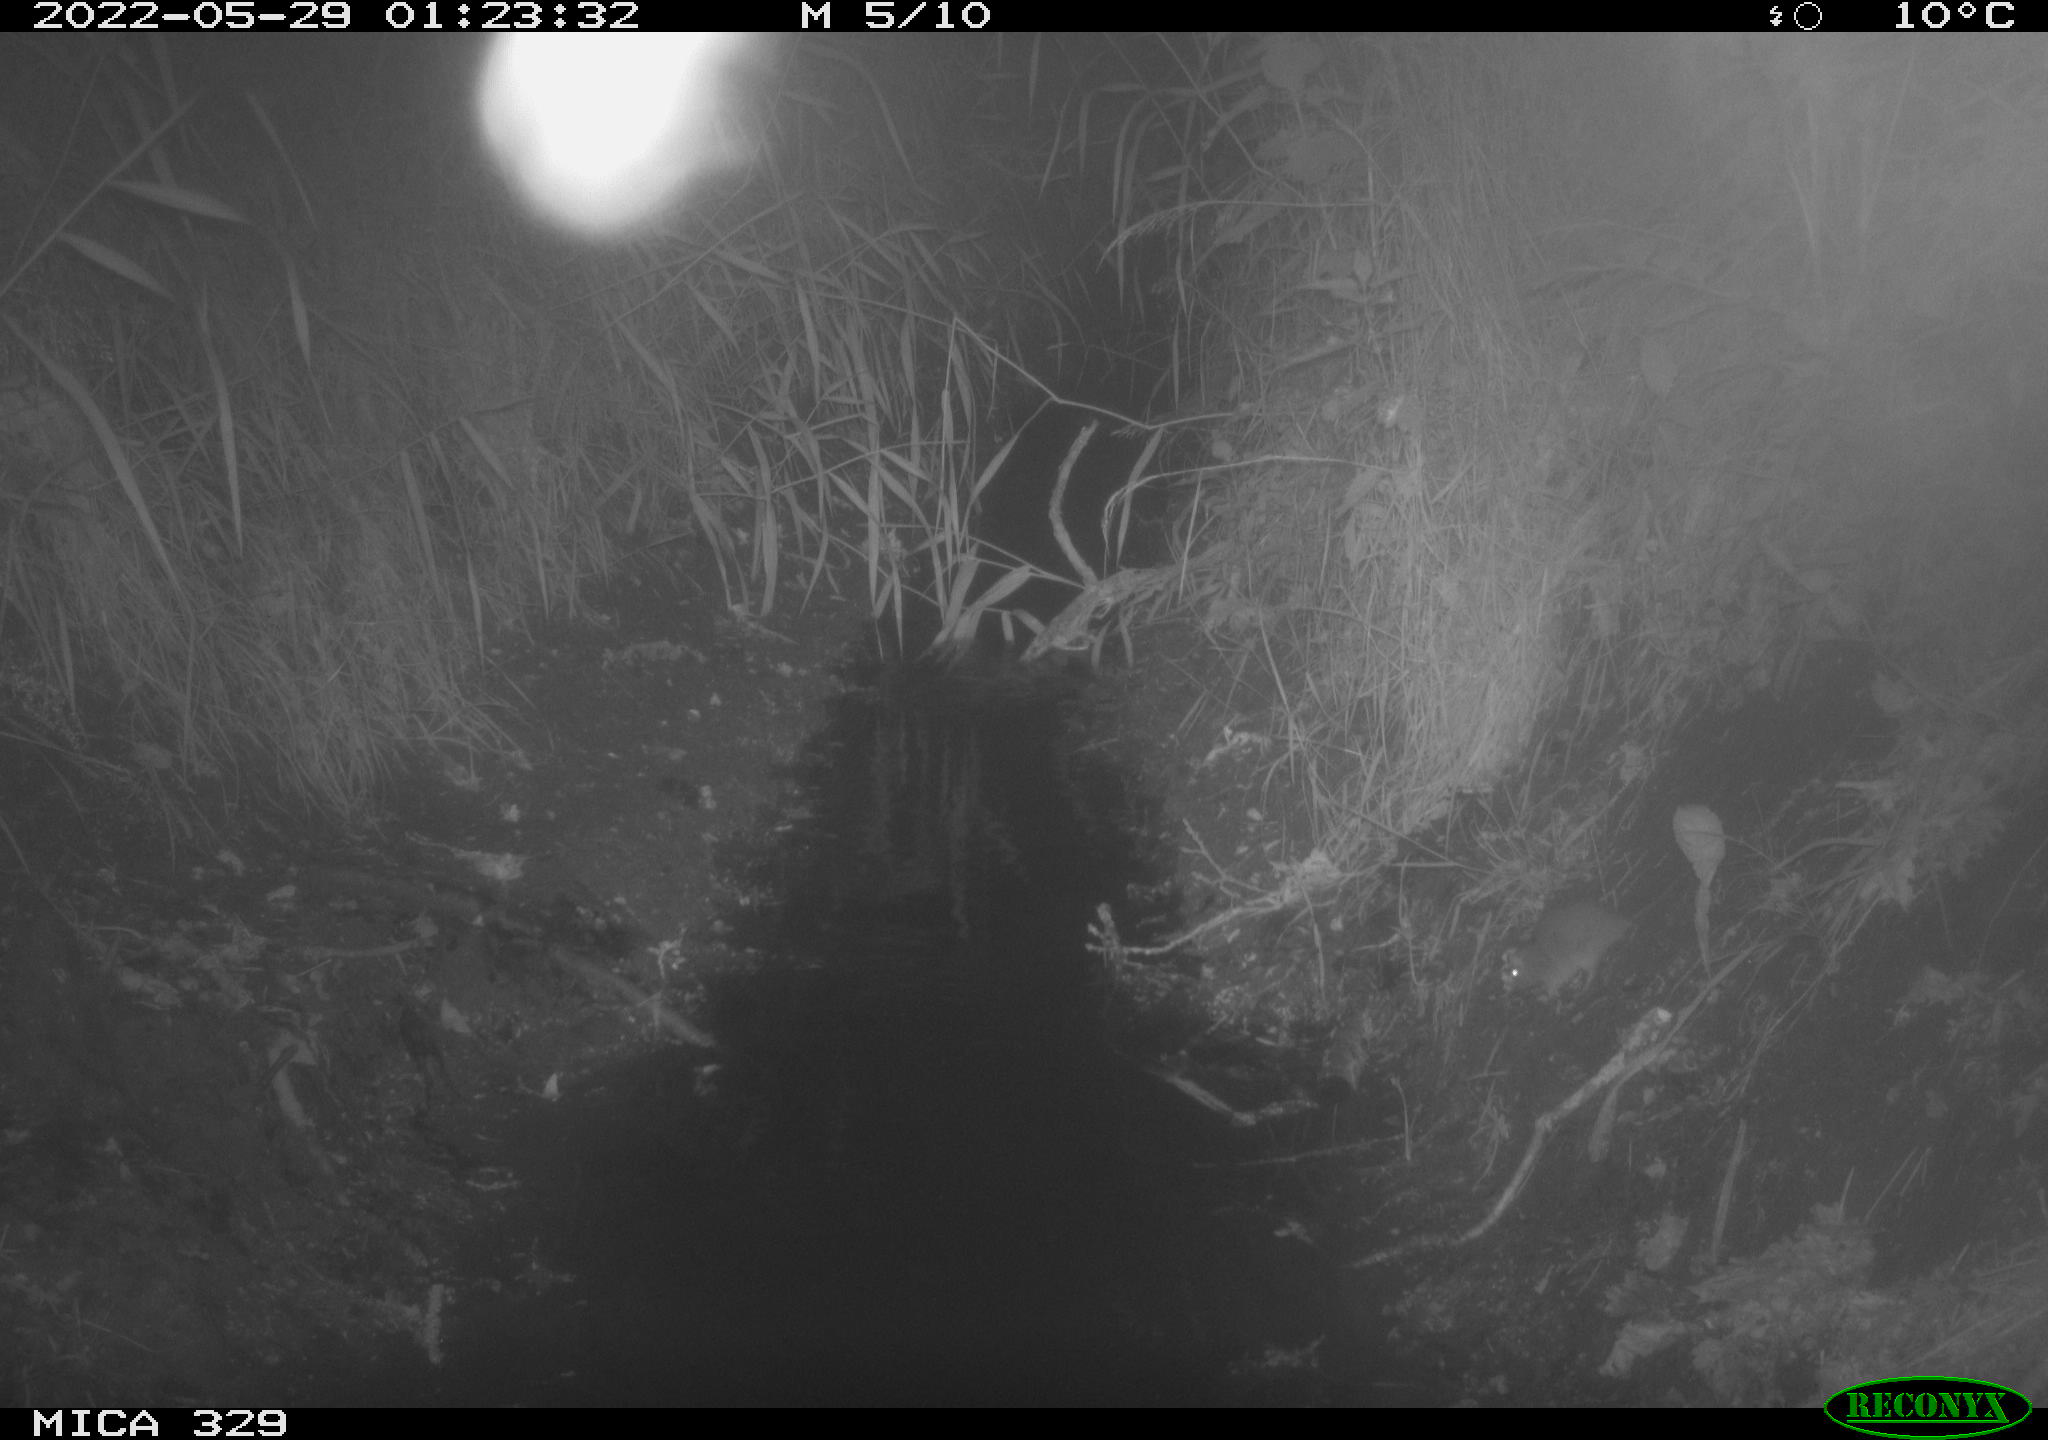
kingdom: Animalia
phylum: Chordata
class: Mammalia
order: Rodentia
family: Muridae
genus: Rattus
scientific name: Rattus norvegicus
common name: Brown rat
